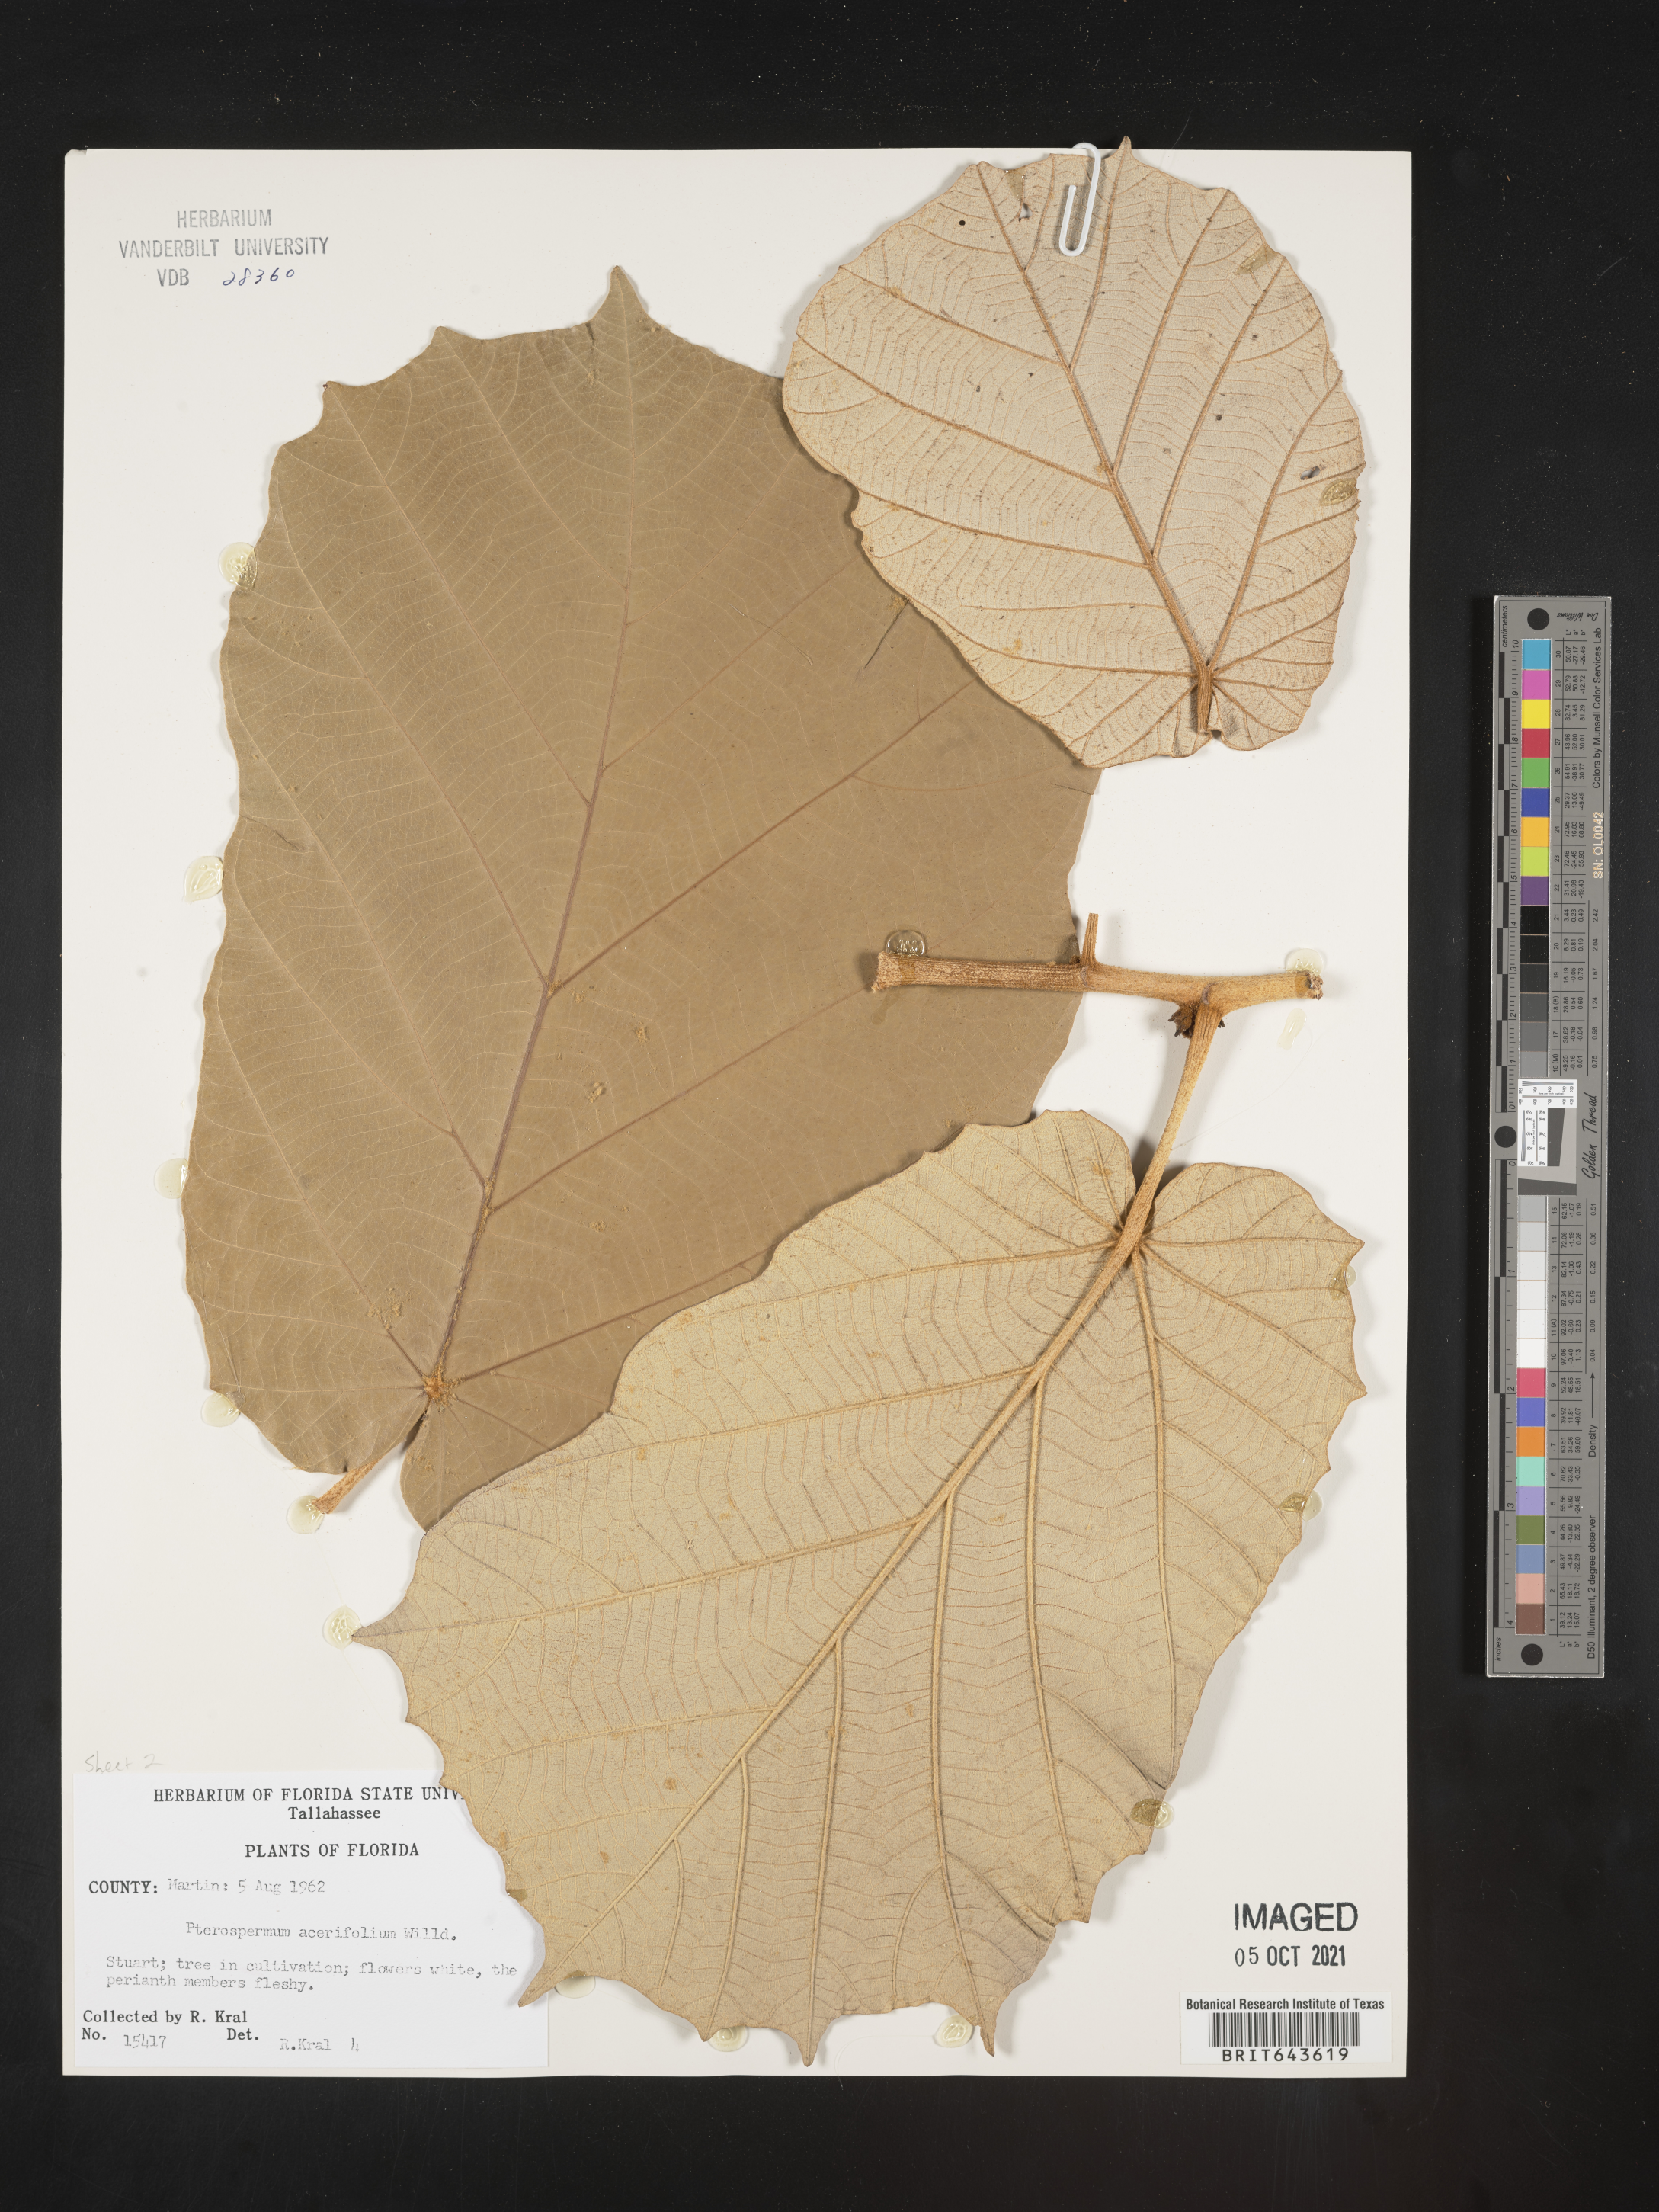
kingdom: Plantae
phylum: Tracheophyta
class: Magnoliopsida
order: Malvales
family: Malvaceae
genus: Pterospermum
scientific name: Pterospermum acerifolium
